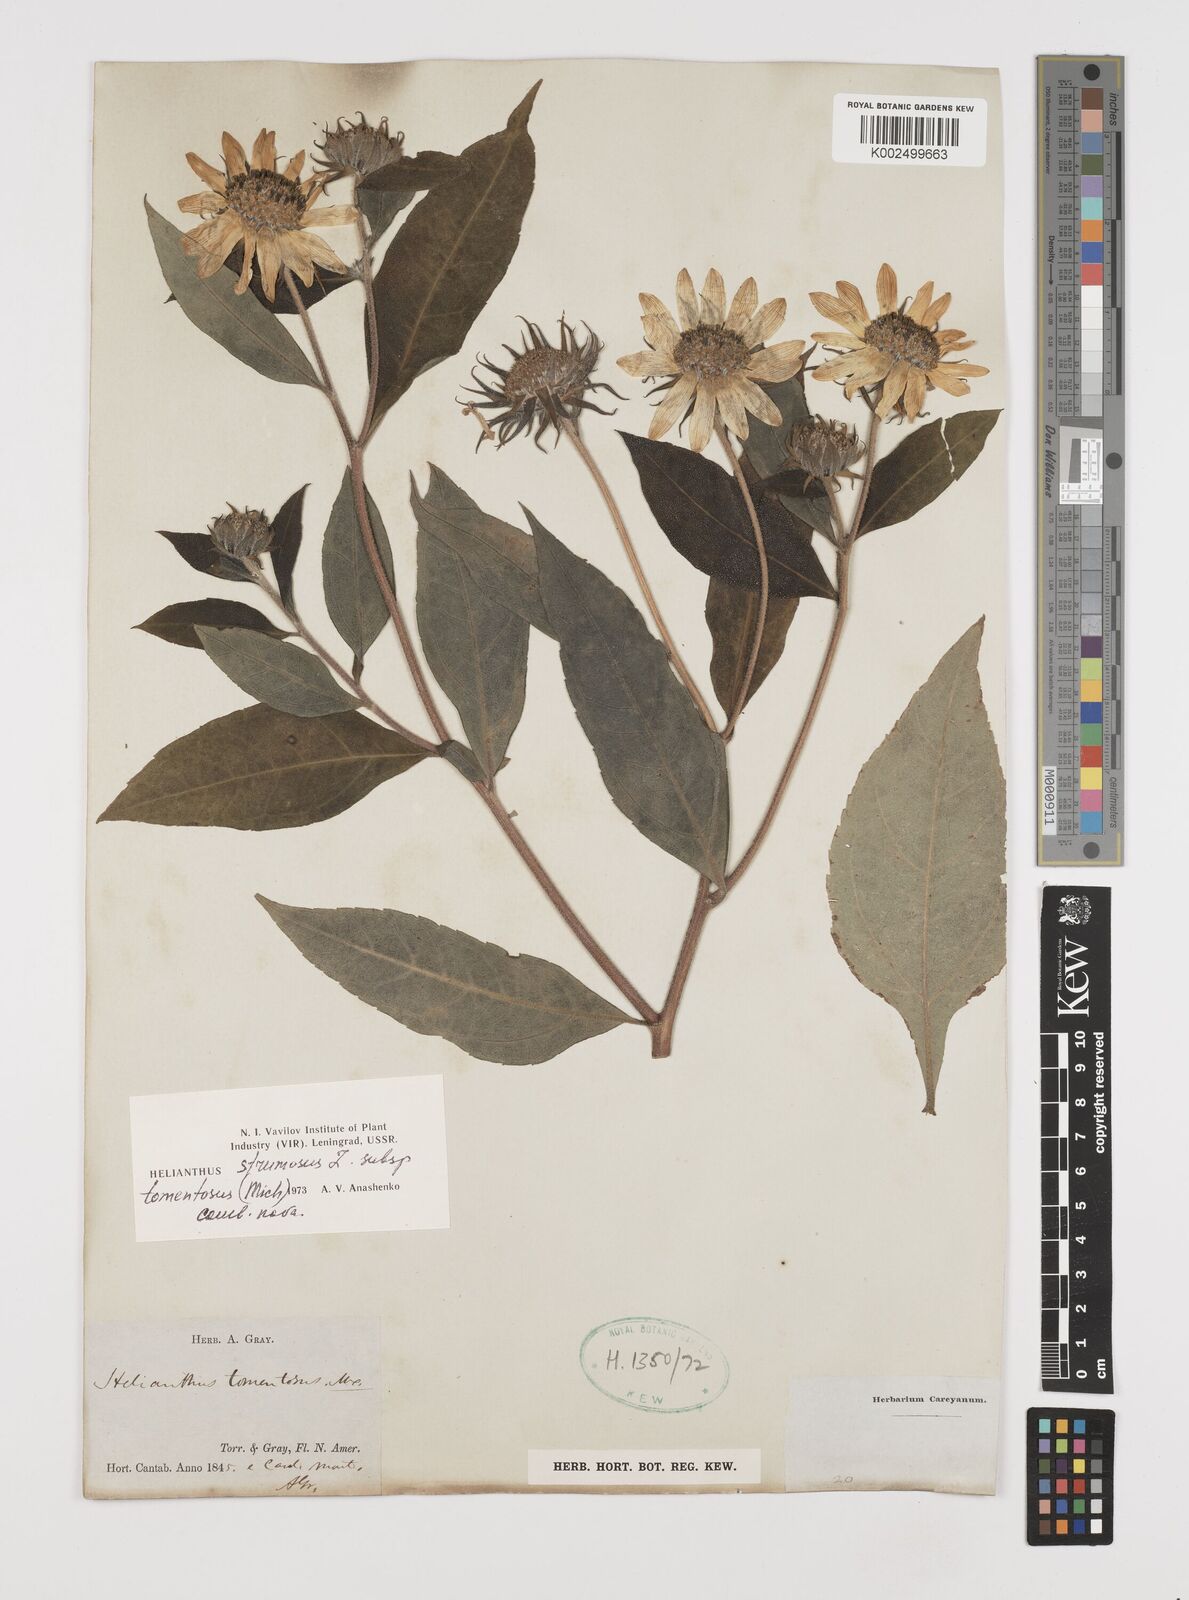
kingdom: Plantae
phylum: Tracheophyta
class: Magnoliopsida
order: Asterales
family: Asteraceae
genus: Helianthus
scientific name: Helianthus strumosus
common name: Pale-leaved sunflower
